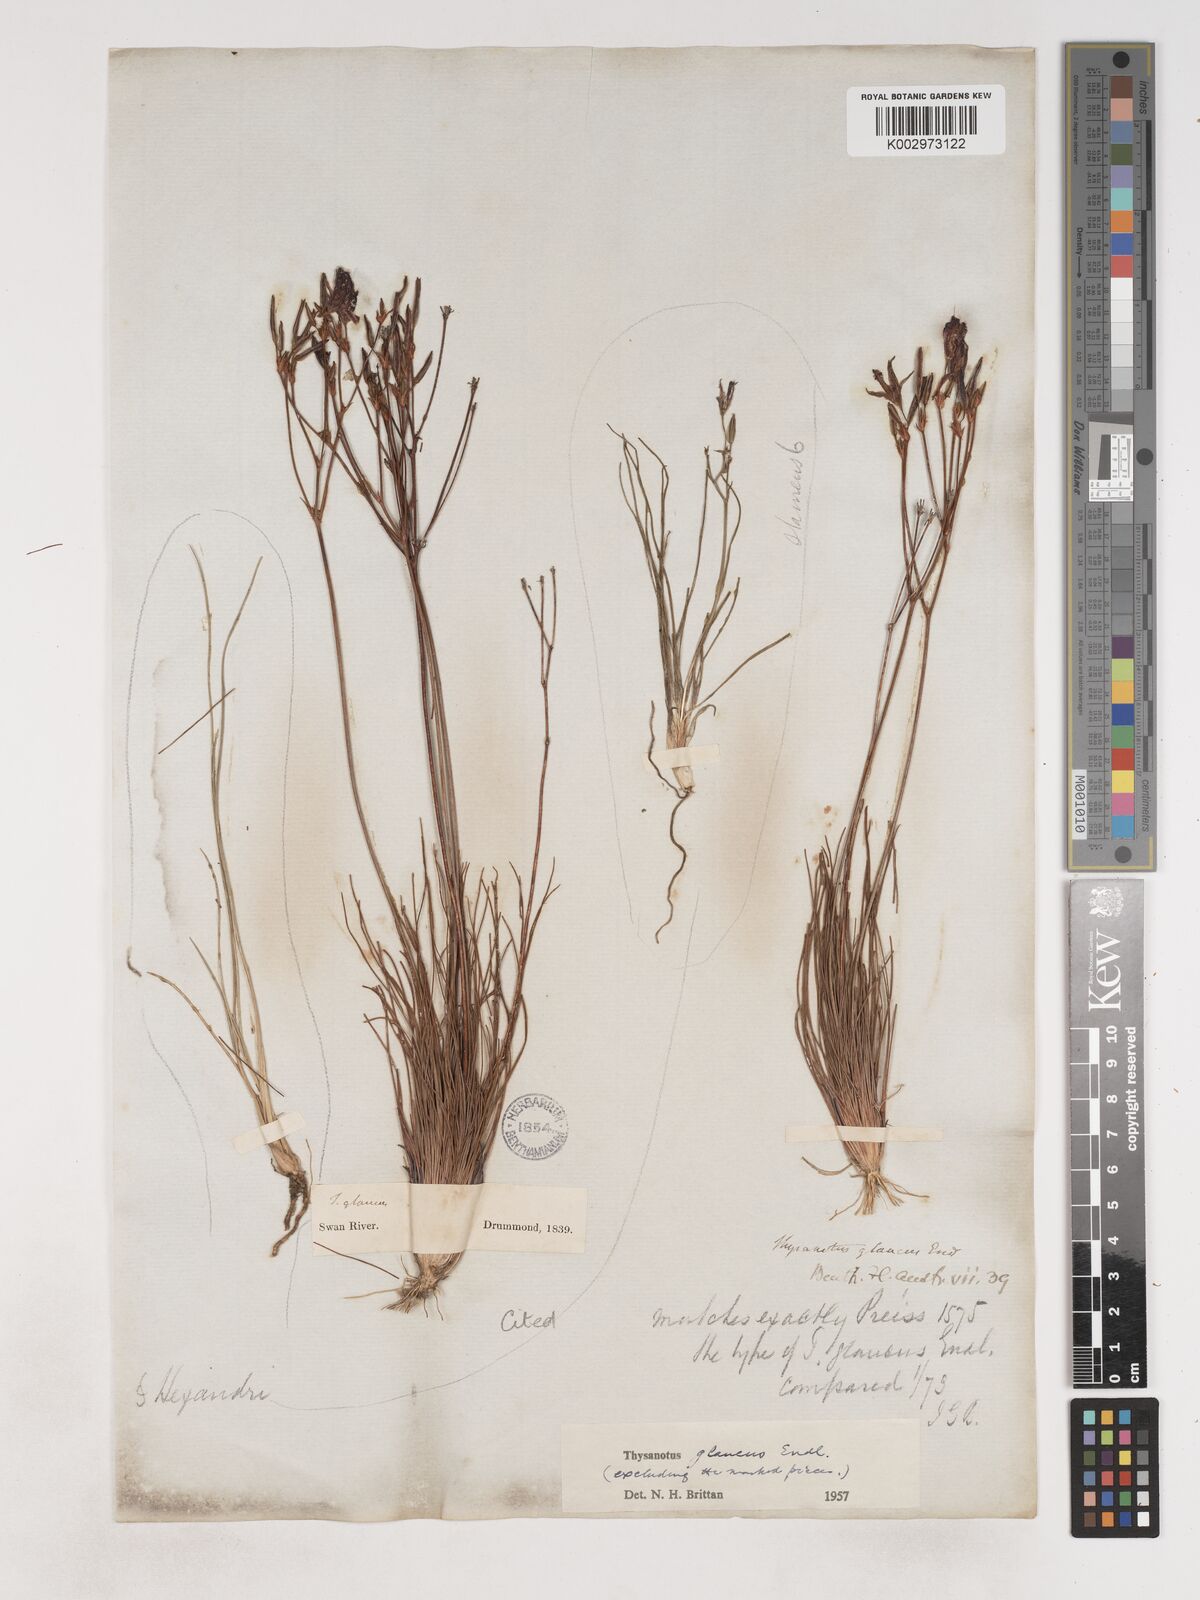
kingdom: Plantae
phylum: Tracheophyta
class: Liliopsida
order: Asparagales
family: Asparagaceae
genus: Thysanotus
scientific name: Thysanotus glaucus
